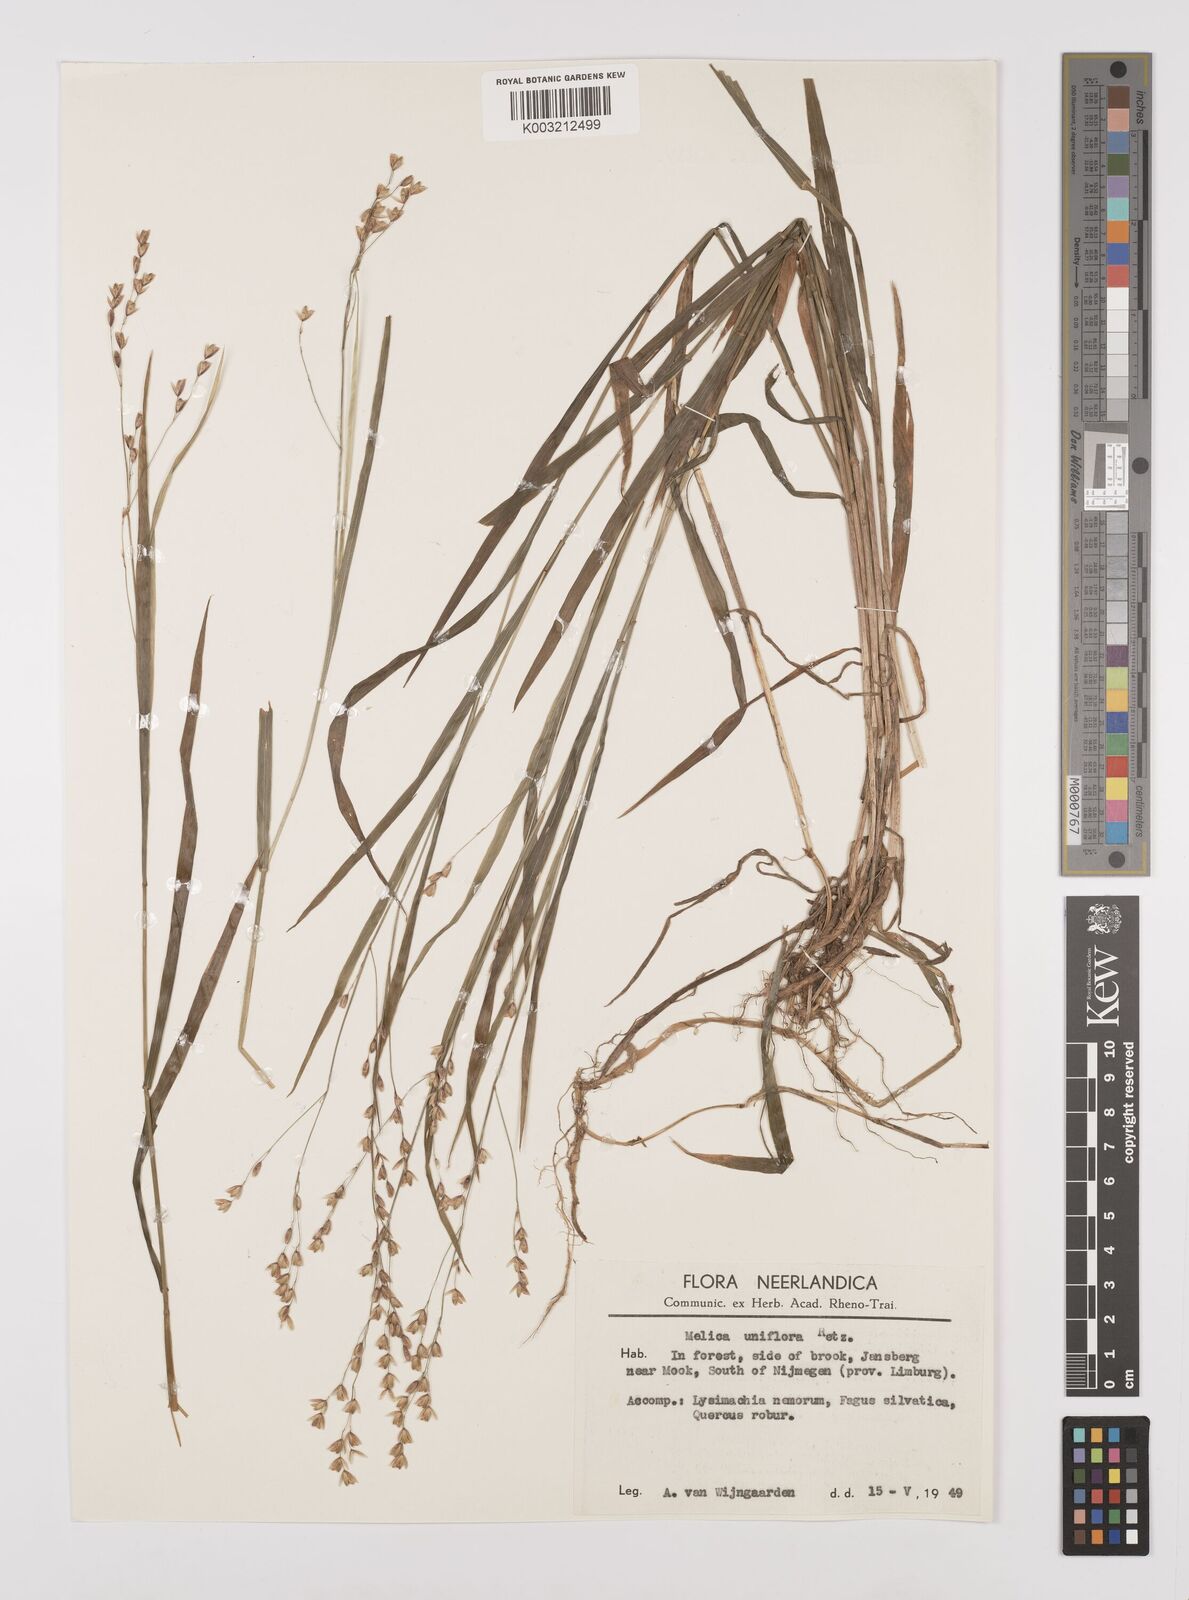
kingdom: Plantae
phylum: Tracheophyta
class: Liliopsida
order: Poales
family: Poaceae
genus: Melica
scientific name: Melica uniflora
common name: Wood melick
